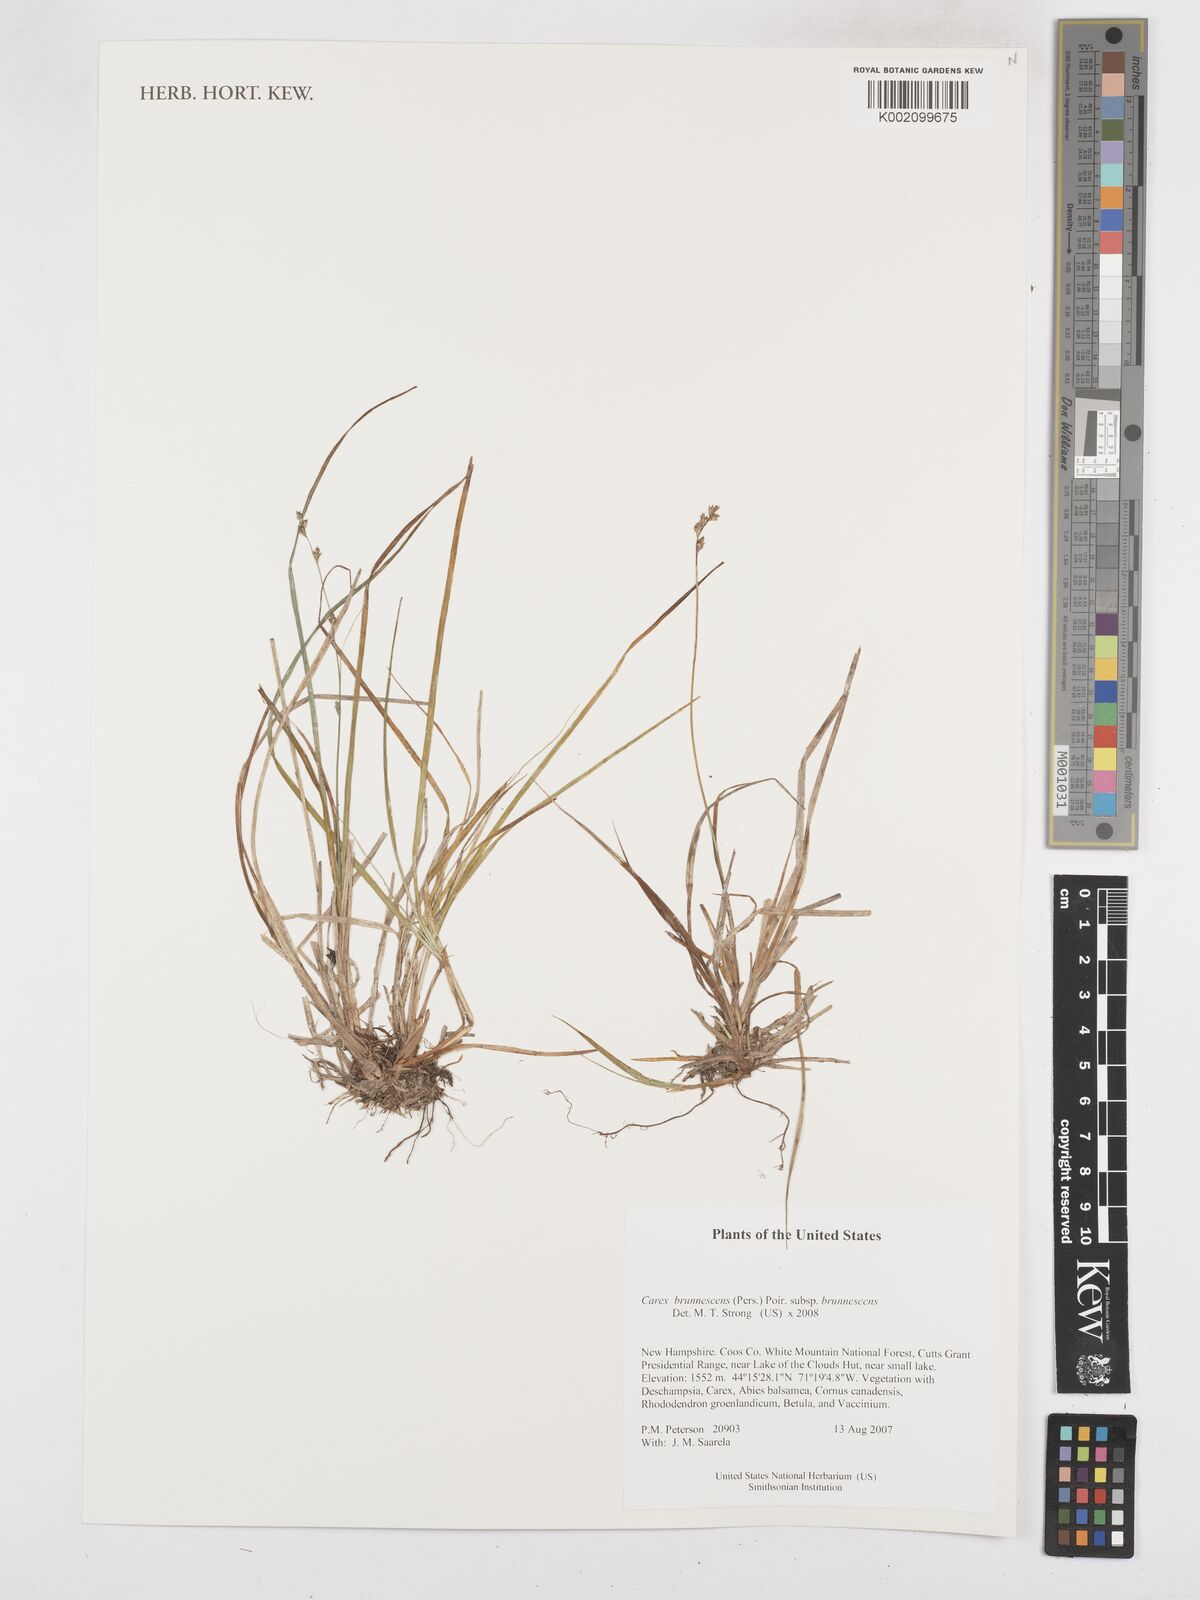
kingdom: Plantae
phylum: Tracheophyta
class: Liliopsida
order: Poales
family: Cyperaceae
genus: Carex
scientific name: Carex brunnescens
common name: Brown sedge
